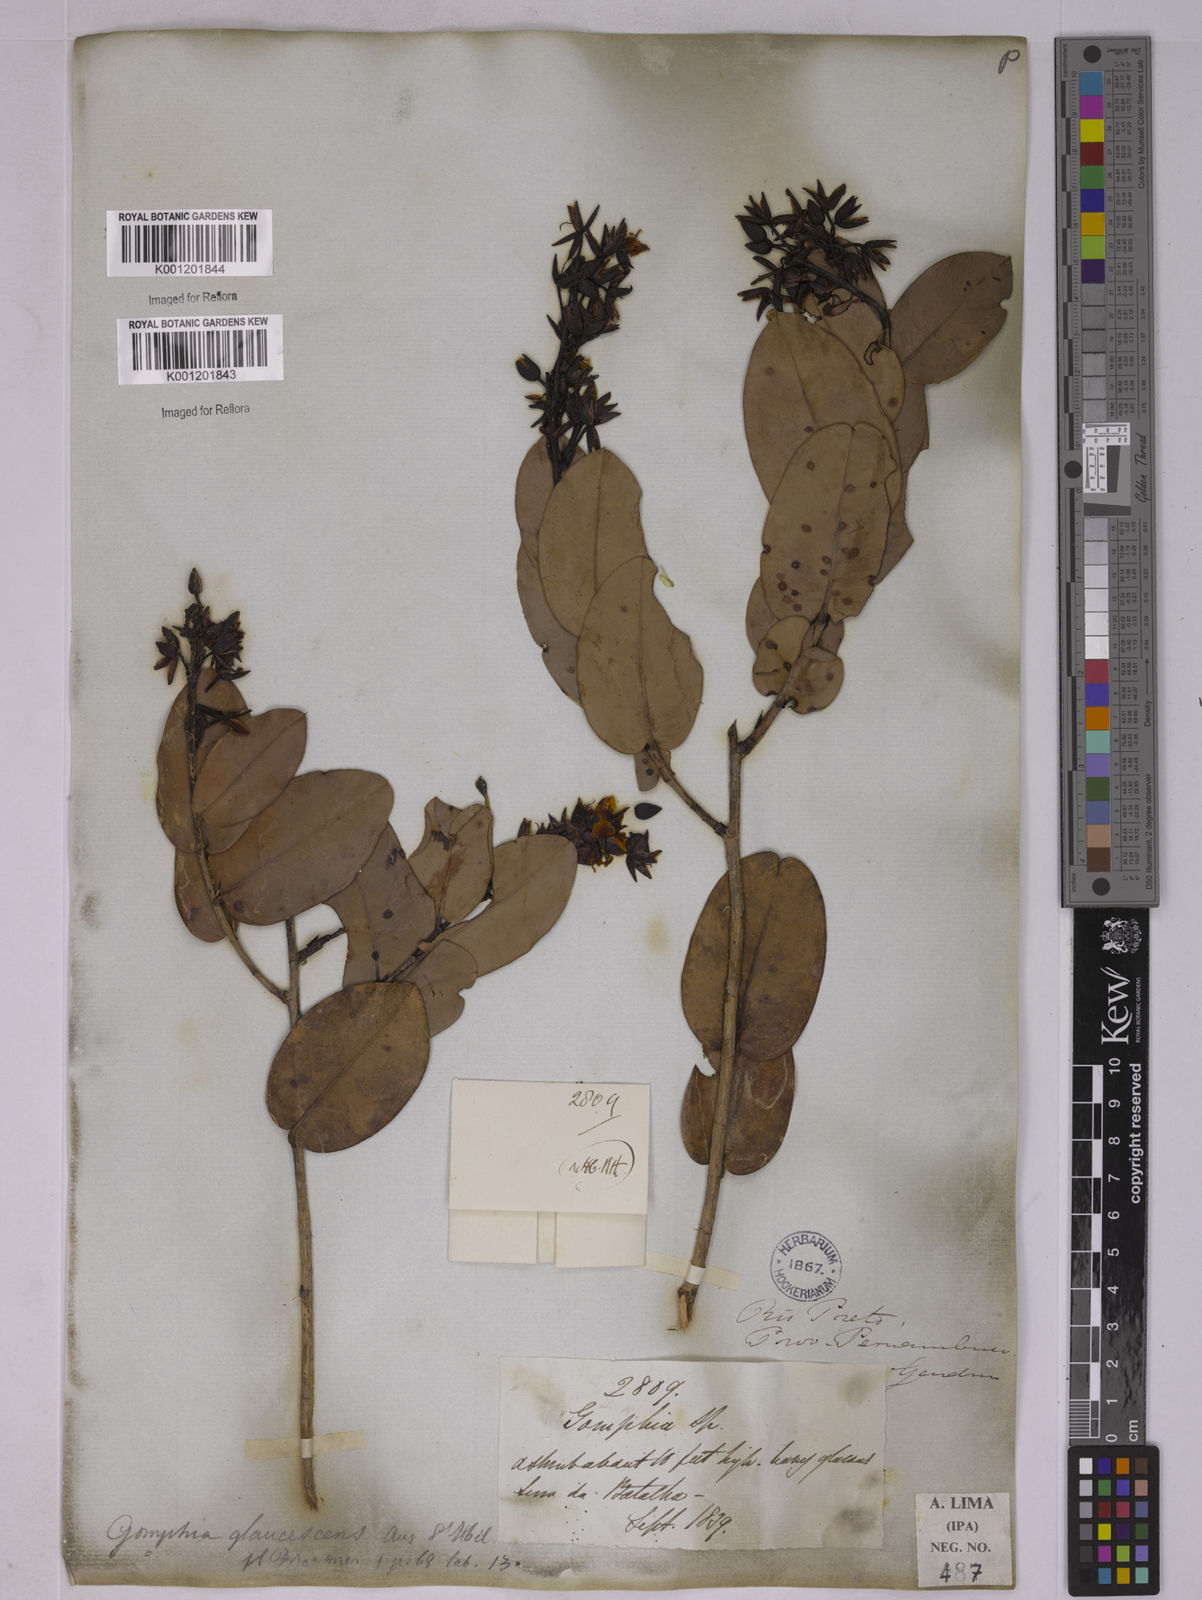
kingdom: Plantae
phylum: Tracheophyta
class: Magnoliopsida
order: Malpighiales
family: Ochnaceae
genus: Ouratea
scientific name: Ouratea glaucescens
